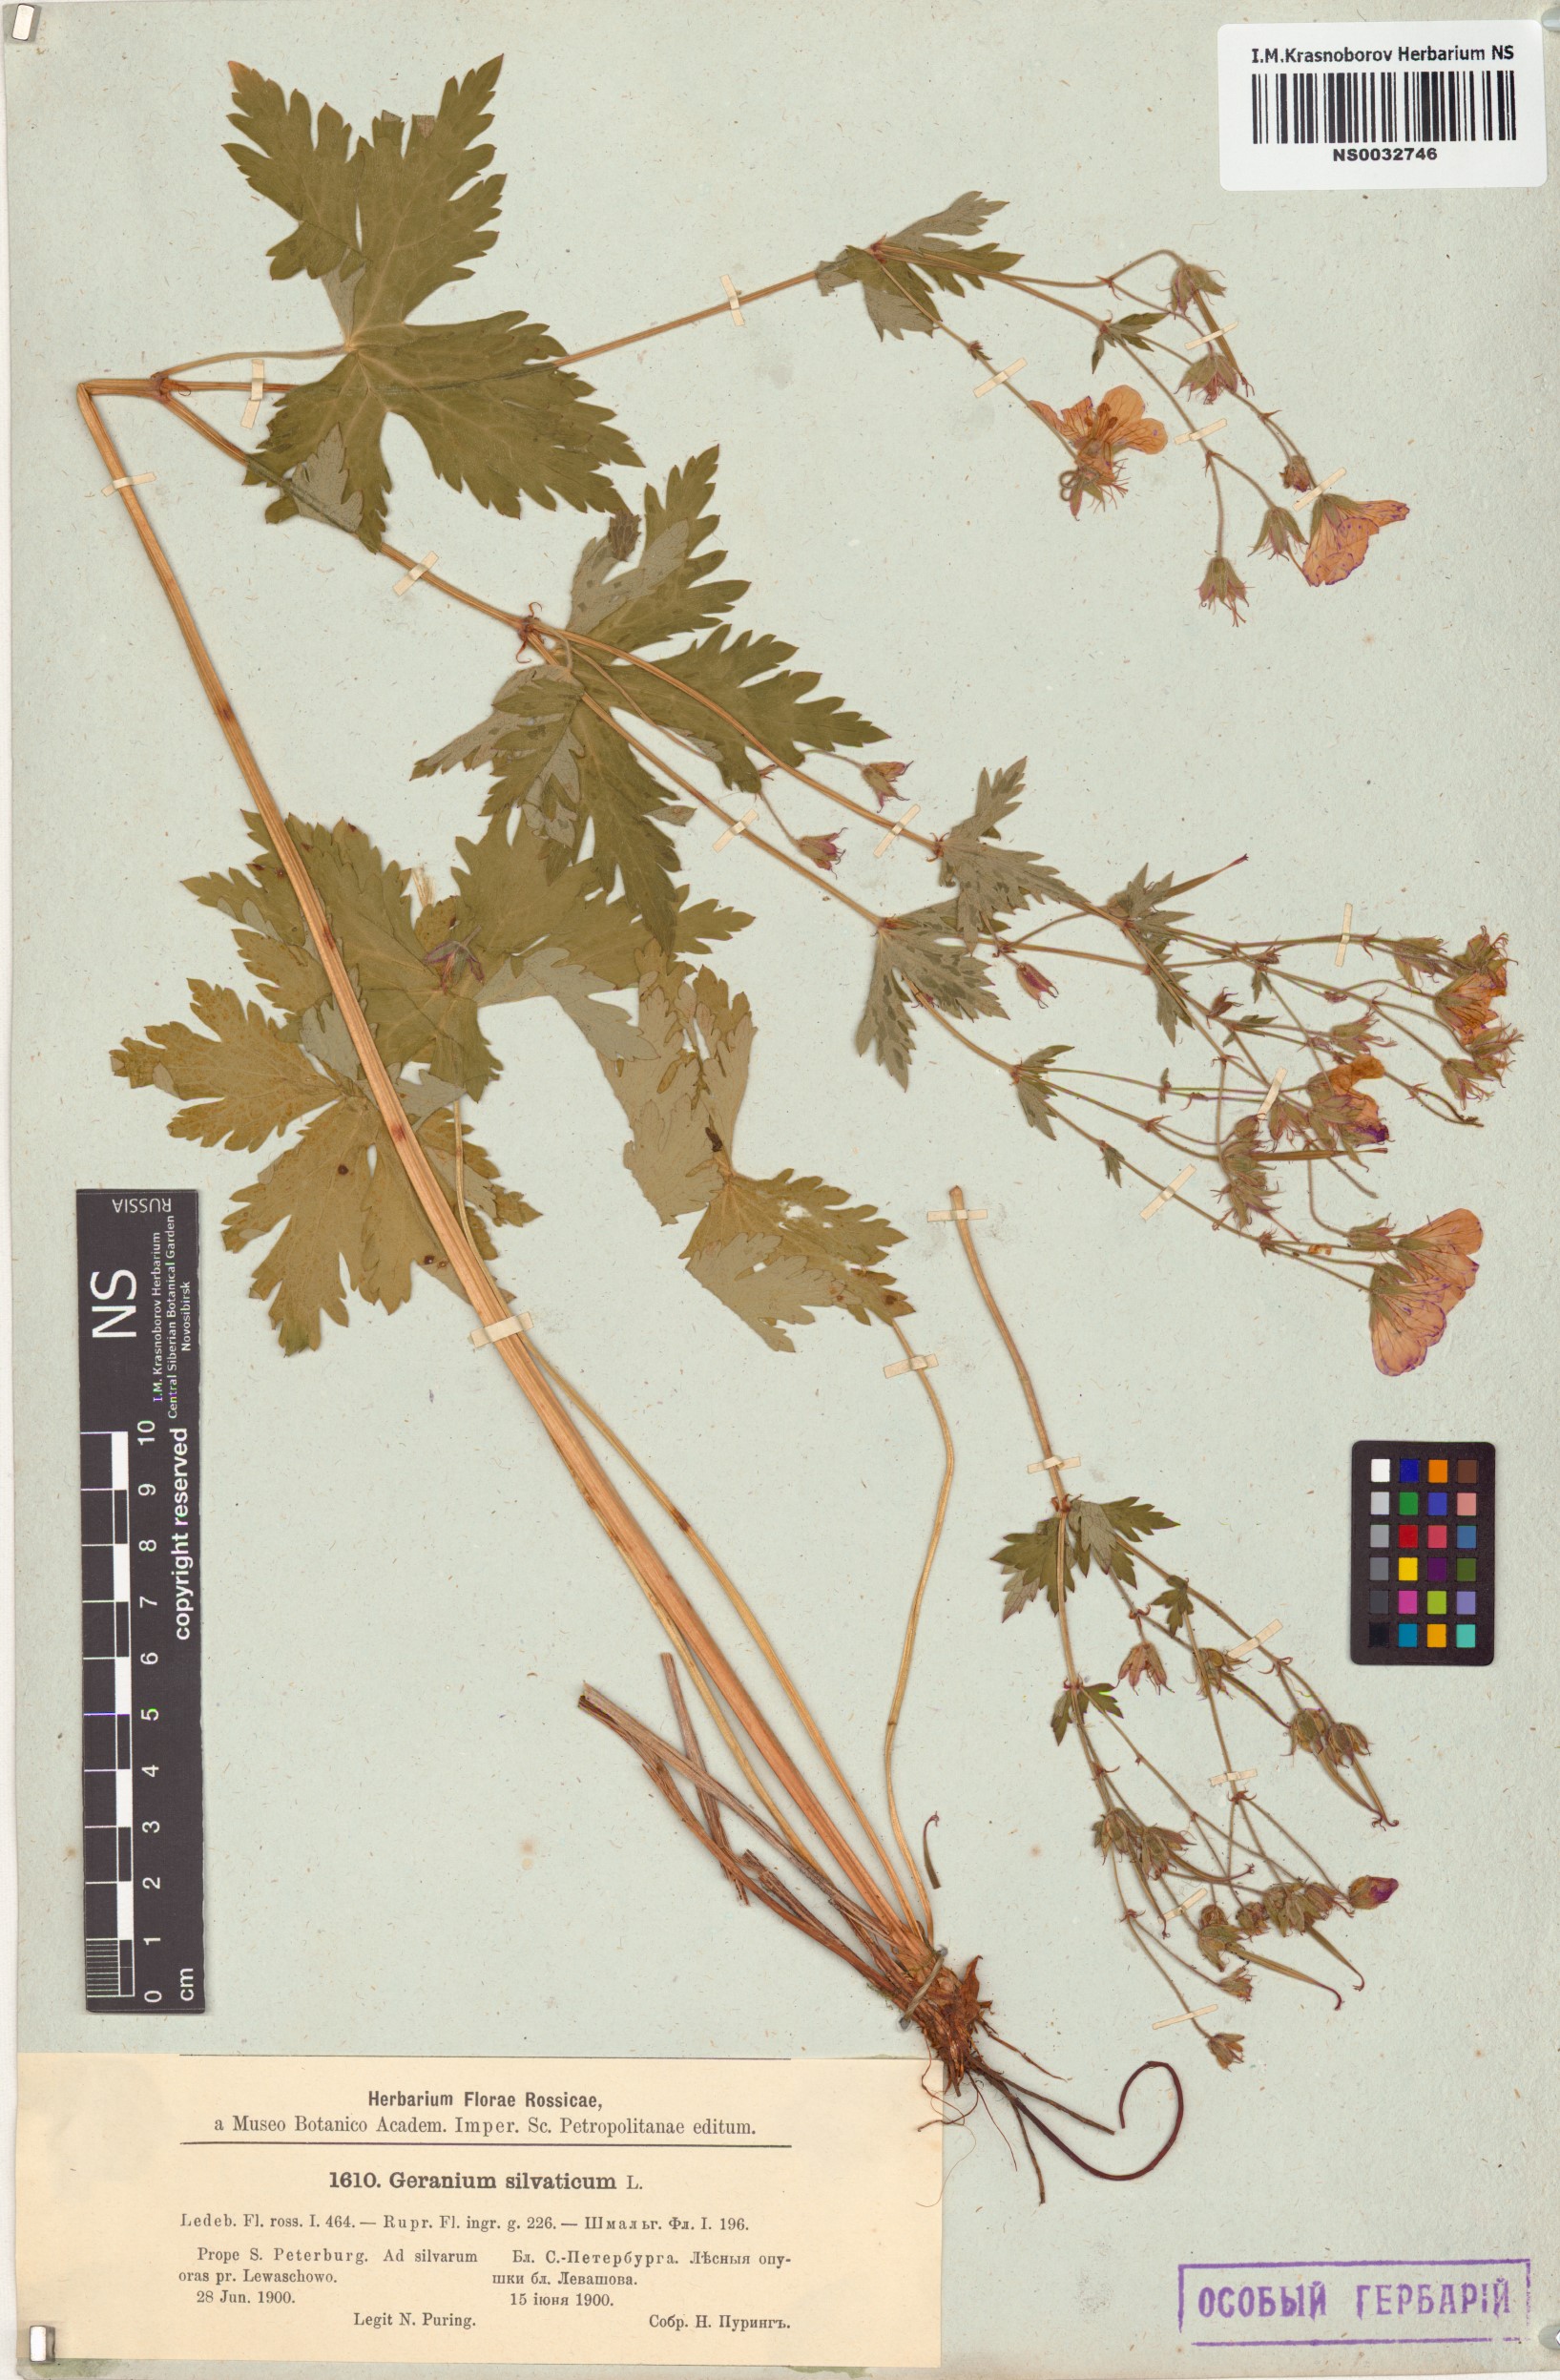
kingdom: Plantae
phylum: Tracheophyta
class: Magnoliopsida
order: Geraniales
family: Geraniaceae
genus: Geranium
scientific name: Geranium sylvaticum
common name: Wood crane's-bill
